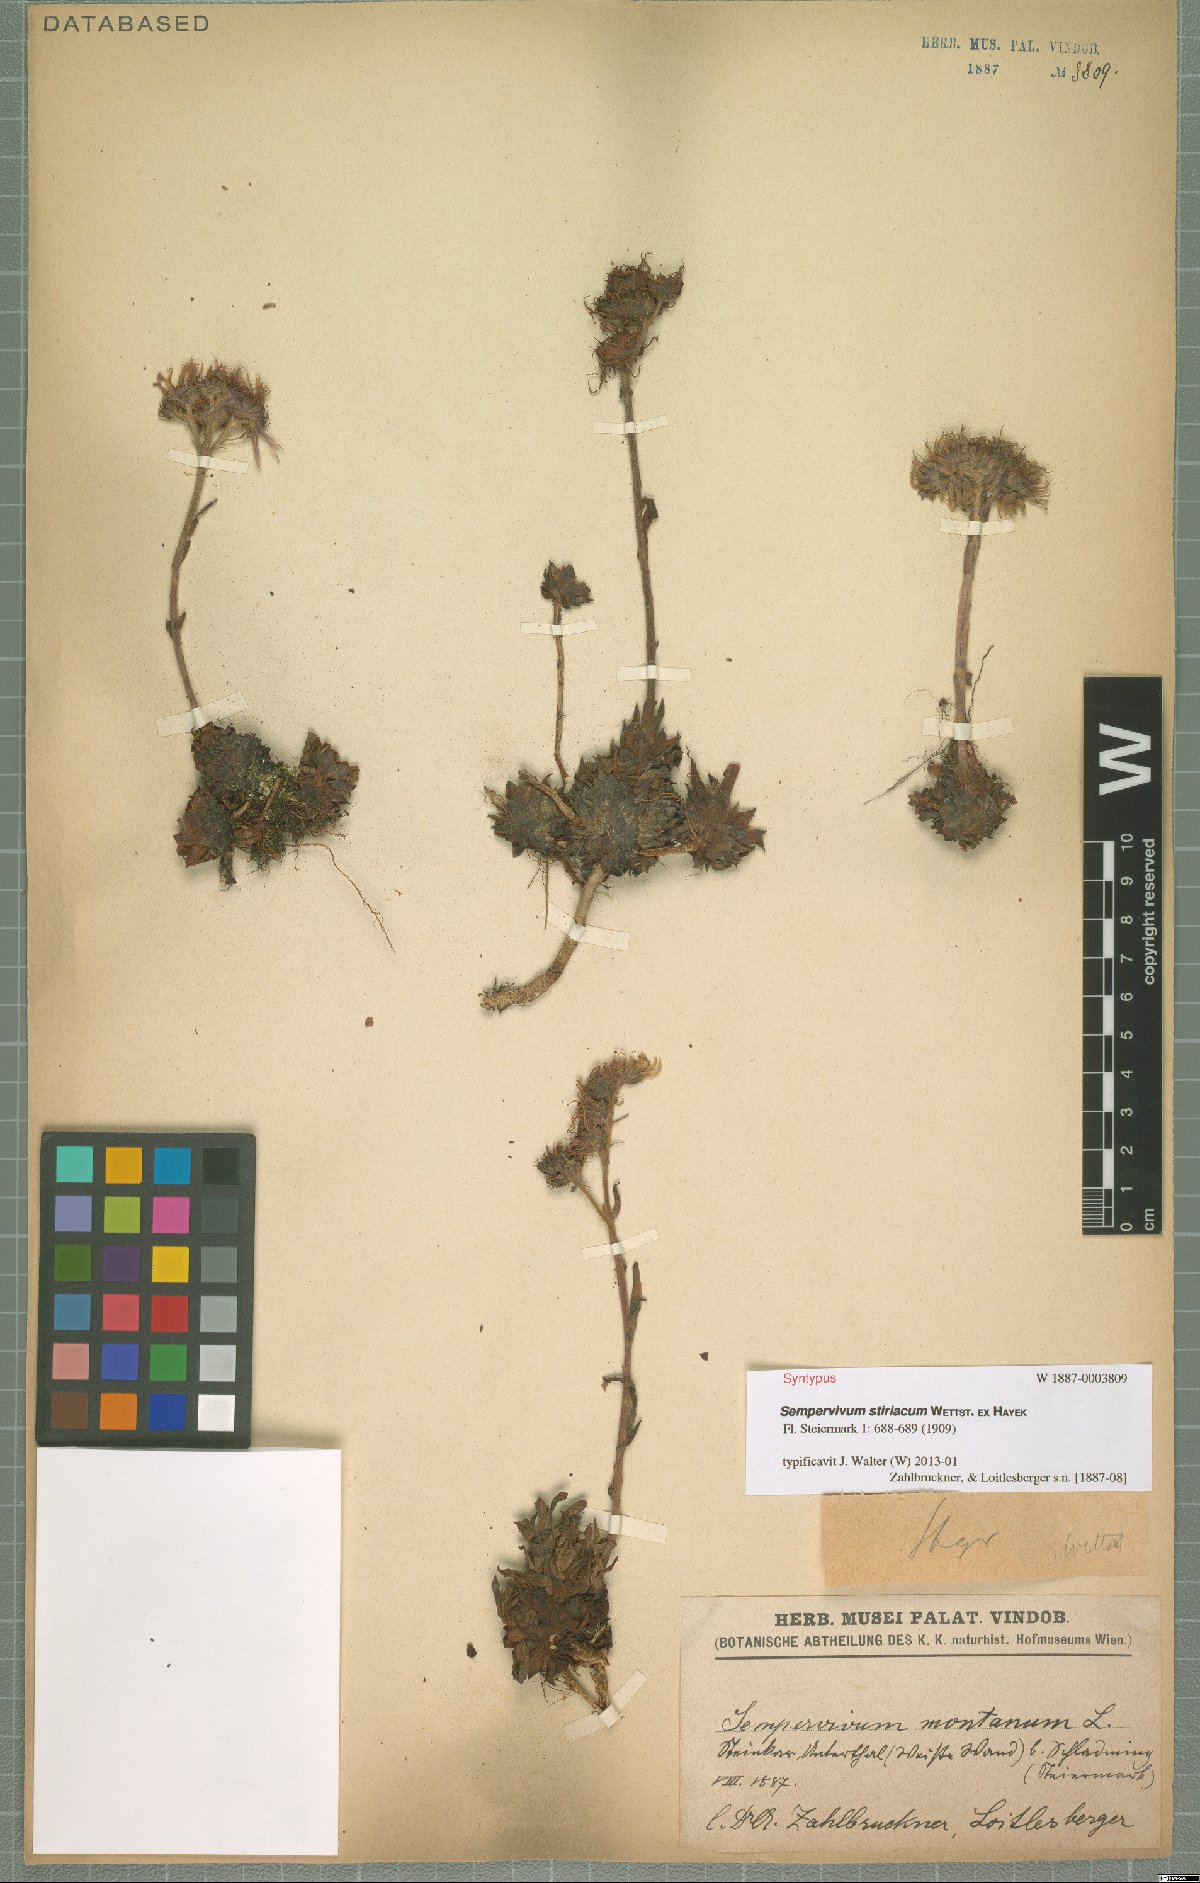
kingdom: Plantae
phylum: Tracheophyta
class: Magnoliopsida
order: Saxifragales
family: Crassulaceae
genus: Sempervivum
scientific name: Sempervivum montanum
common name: Mountain house-leek
